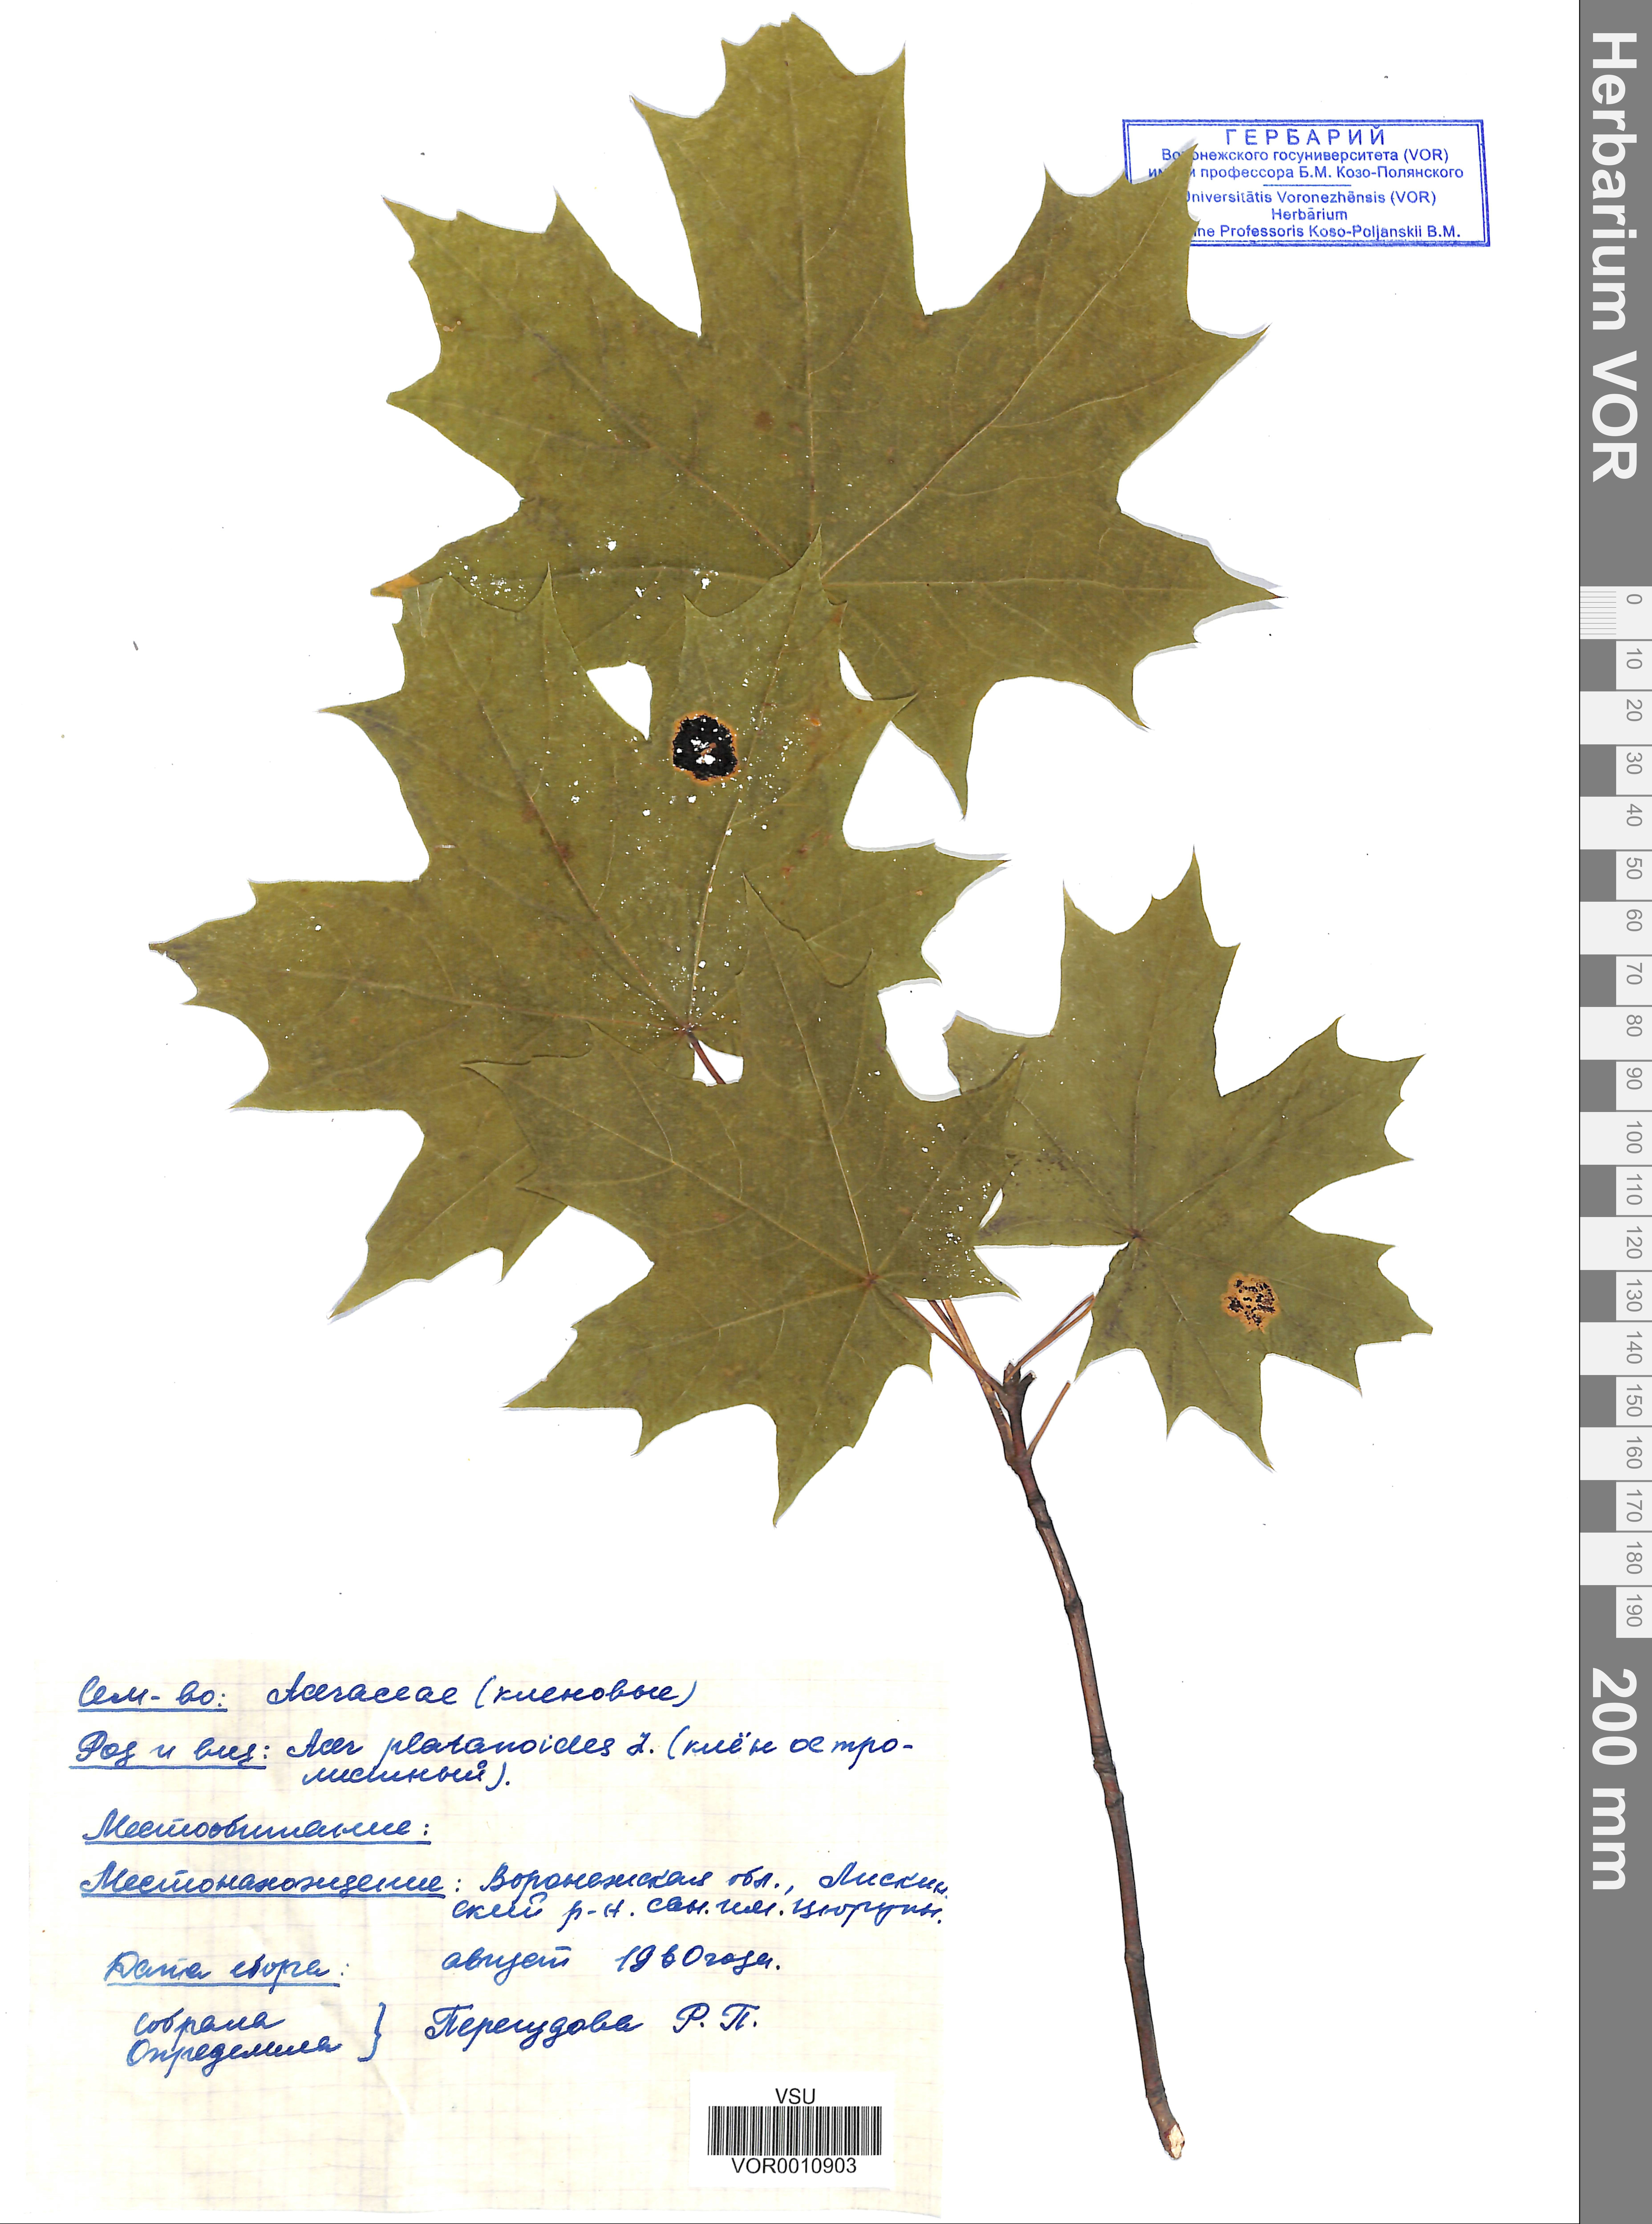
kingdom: Plantae
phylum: Tracheophyta
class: Magnoliopsida
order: Sapindales
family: Sapindaceae
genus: Acer
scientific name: Acer platanoides
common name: Norway maple
